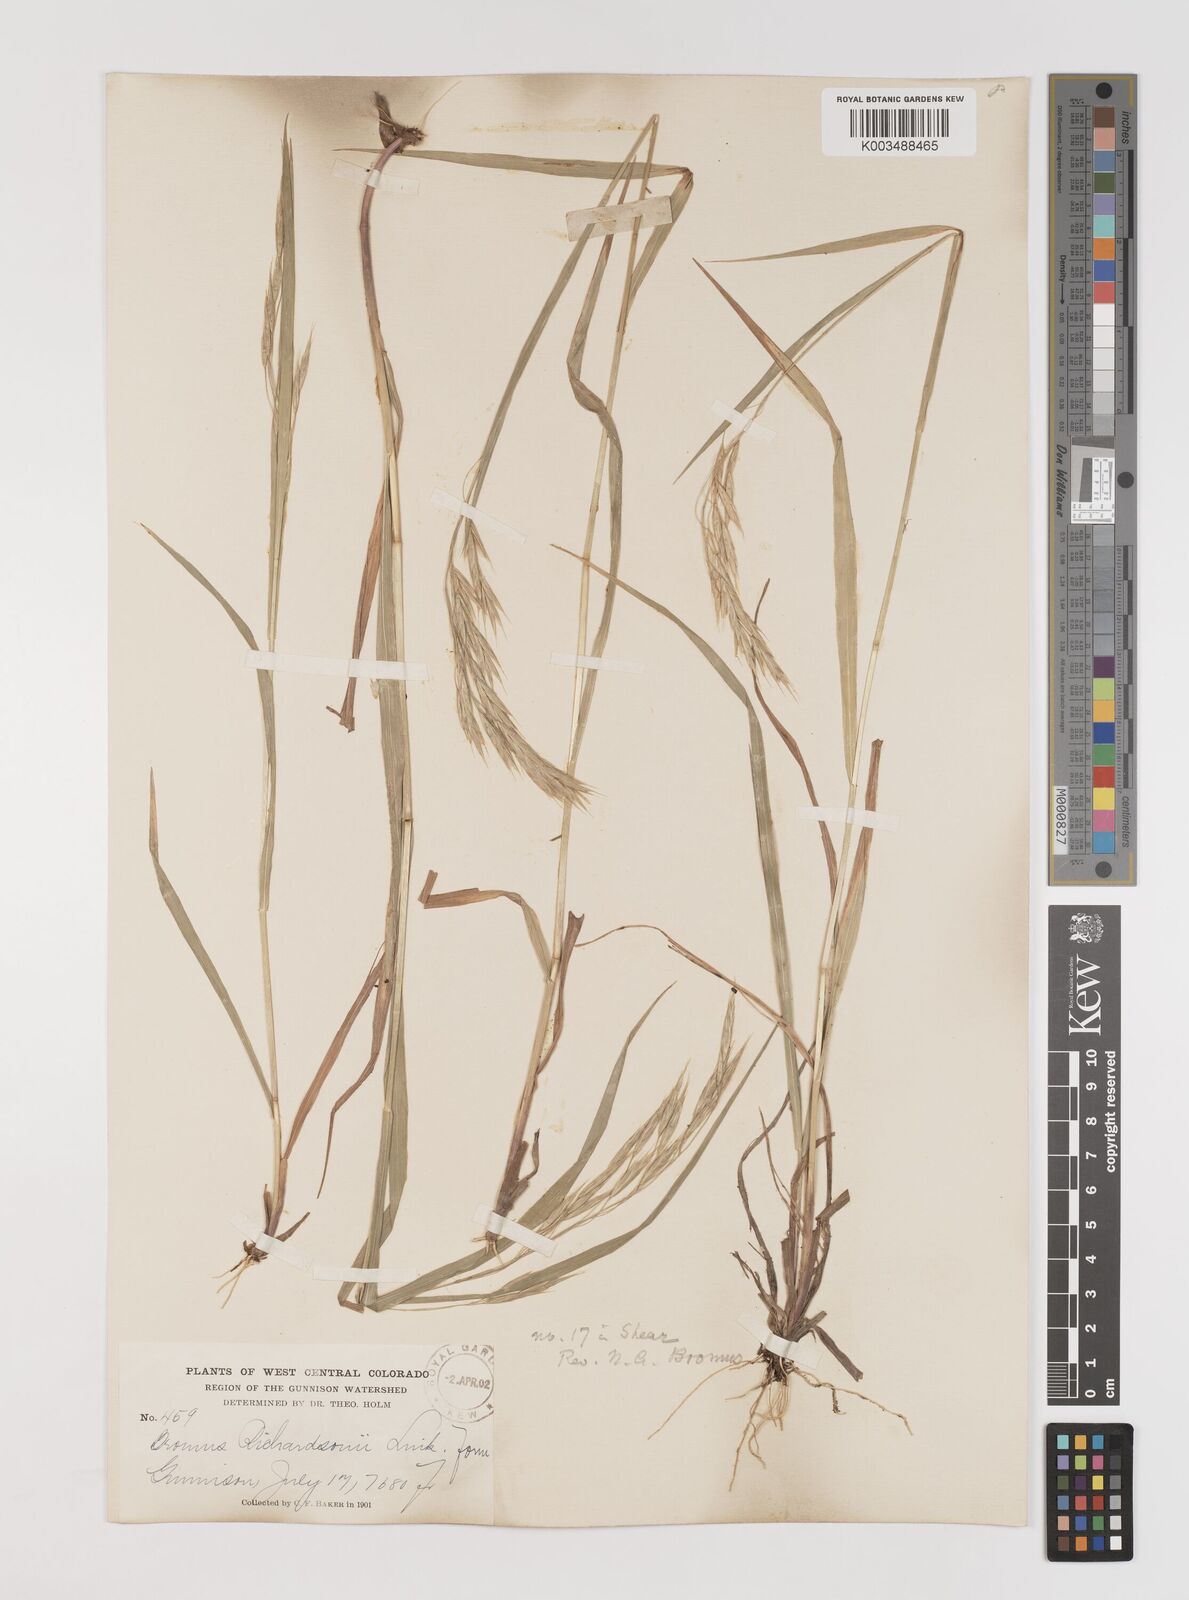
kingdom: Plantae
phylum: Tracheophyta
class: Liliopsida
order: Poales
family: Poaceae
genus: Bromus
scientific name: Bromus richardsonii
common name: Richardson's brome
